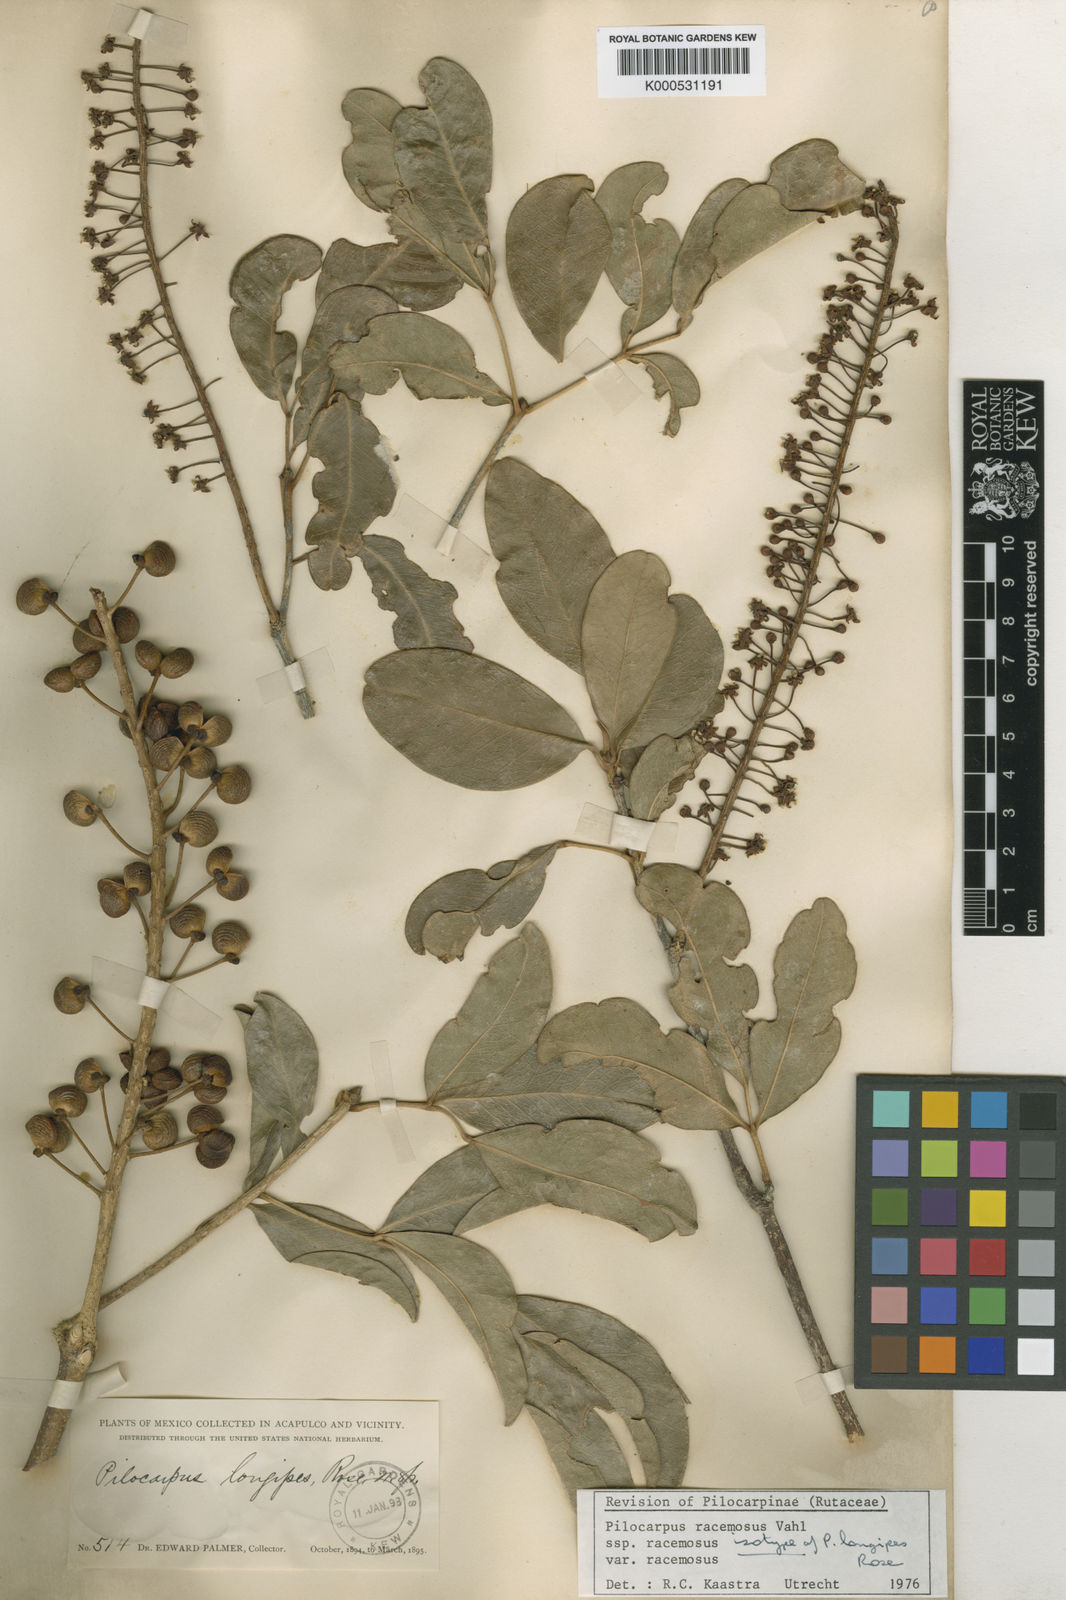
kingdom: Plantae
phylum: Tracheophyta
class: Magnoliopsida
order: Sapindales
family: Rutaceae
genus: Pilocarpus
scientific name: Pilocarpus racemosus
